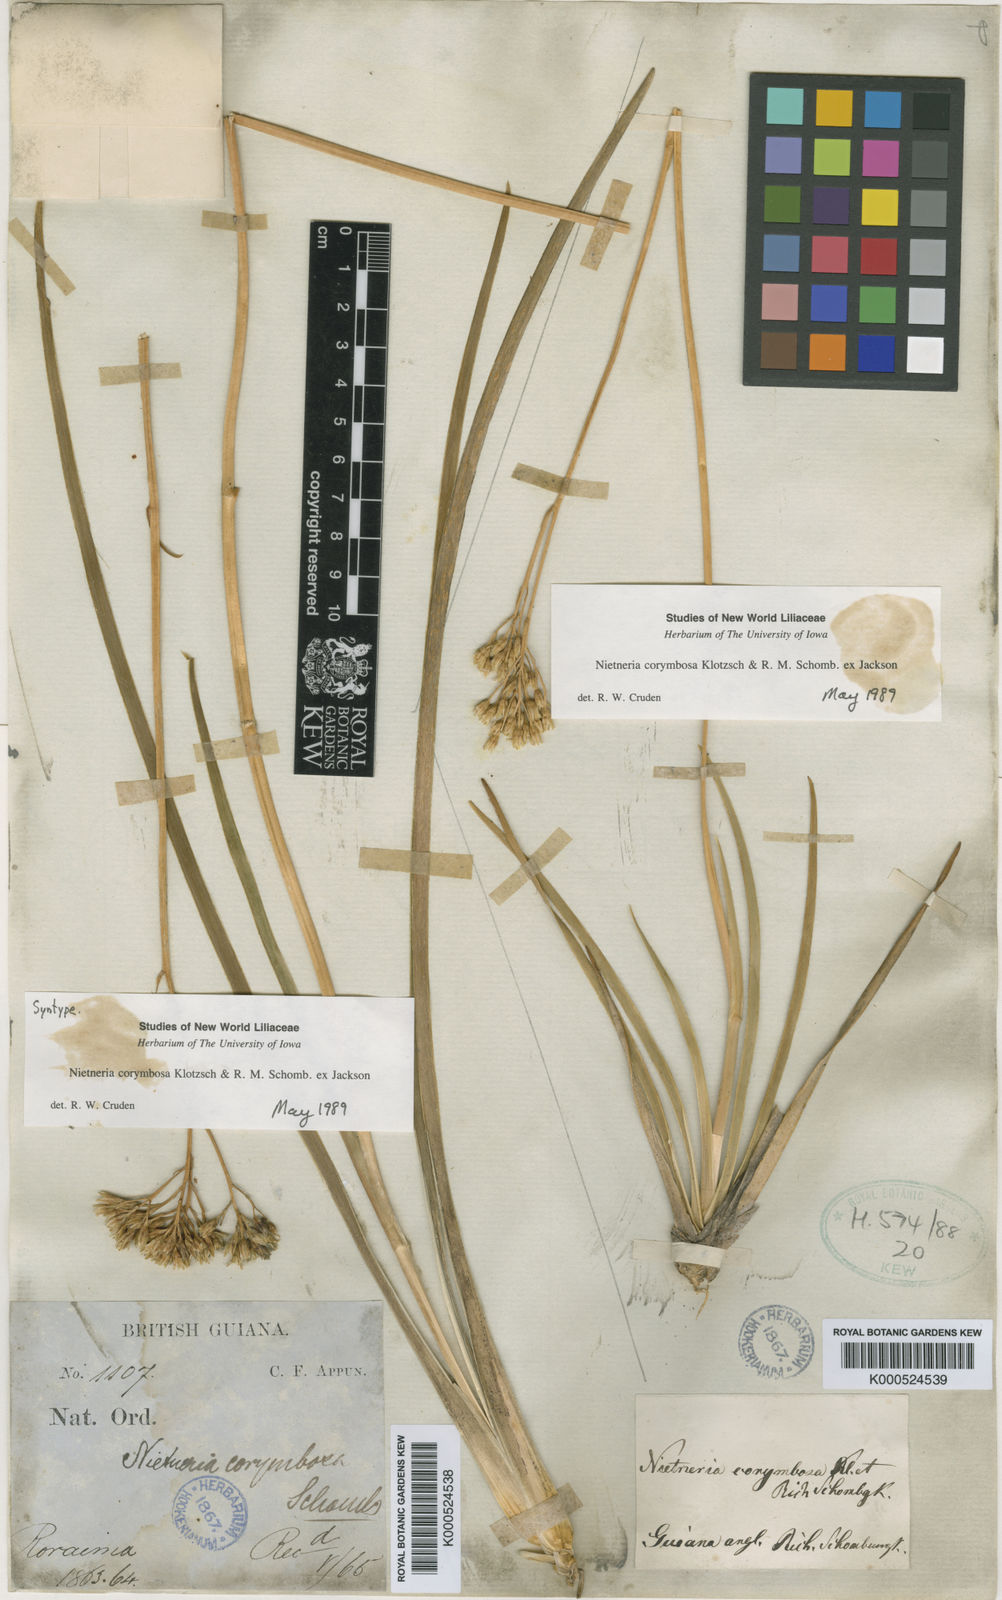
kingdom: Plantae
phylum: Tracheophyta
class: Liliopsida
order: Dioscoreales
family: Nartheciaceae
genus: Nietneria
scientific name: Nietneria corymbosa
